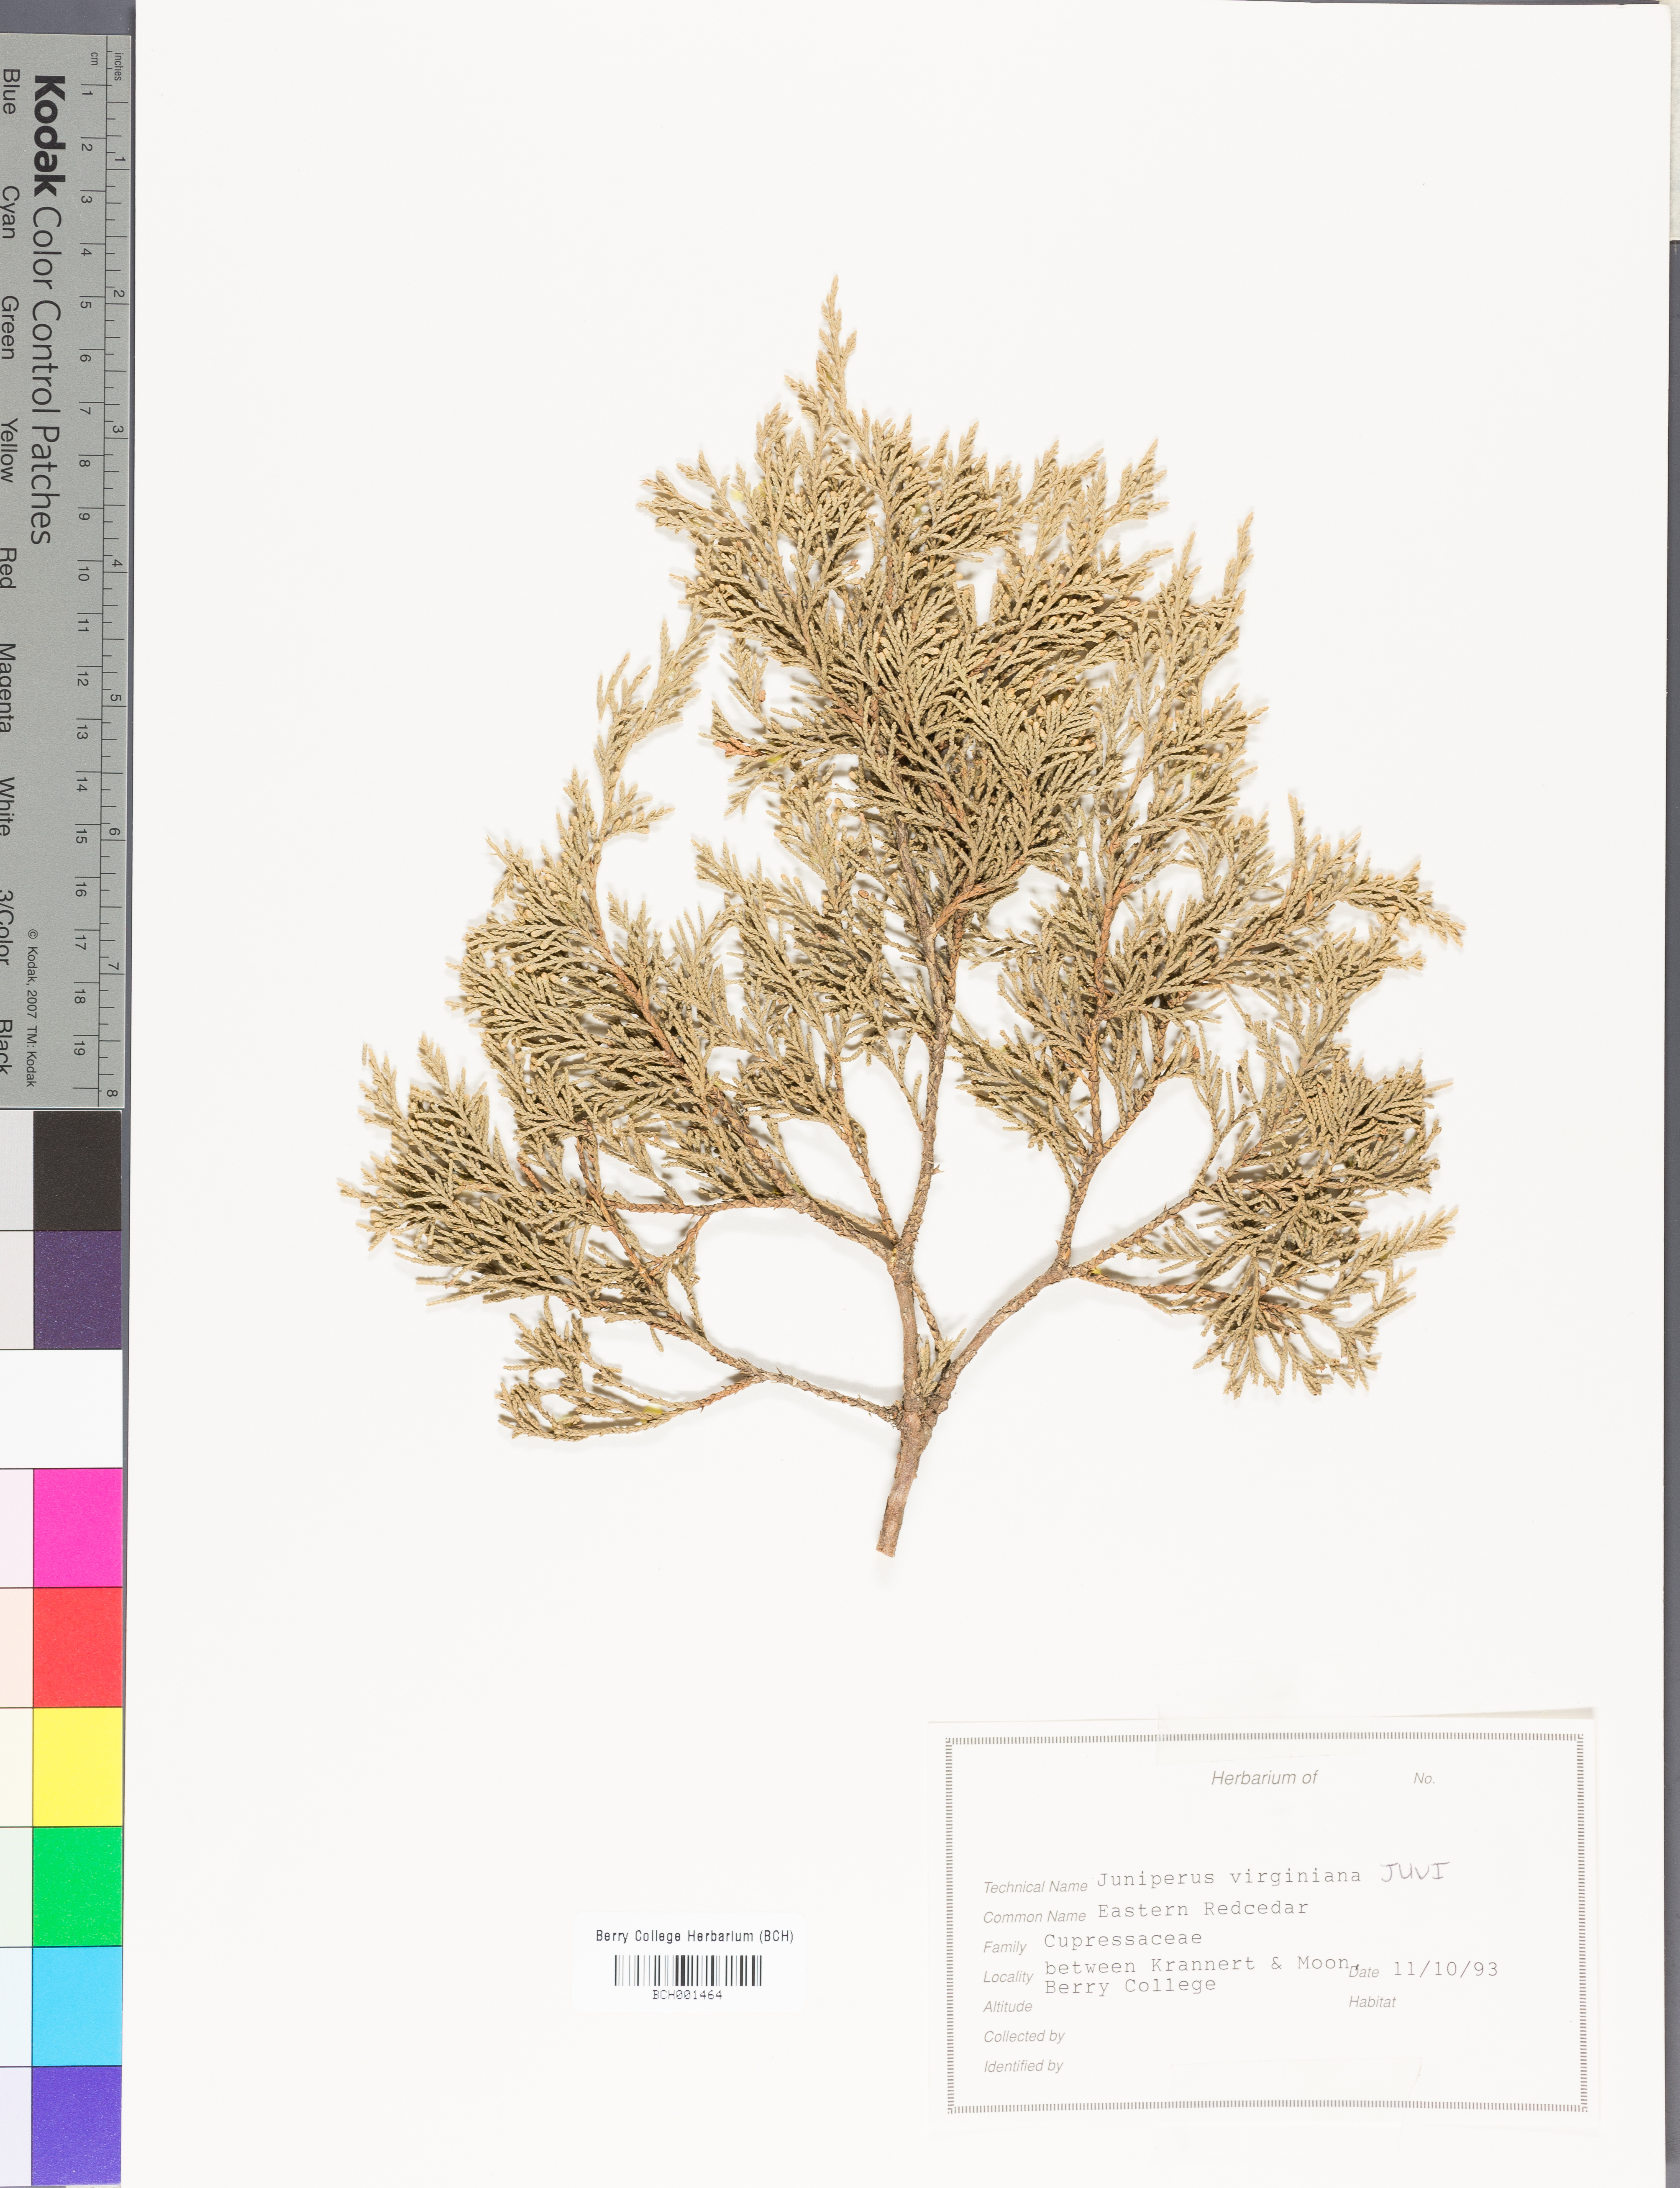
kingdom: Plantae
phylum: Tracheophyta
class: Pinopsida
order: Pinales
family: Cupressaceae
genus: Juniperus
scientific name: Juniperus virginiana
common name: Red juniper
